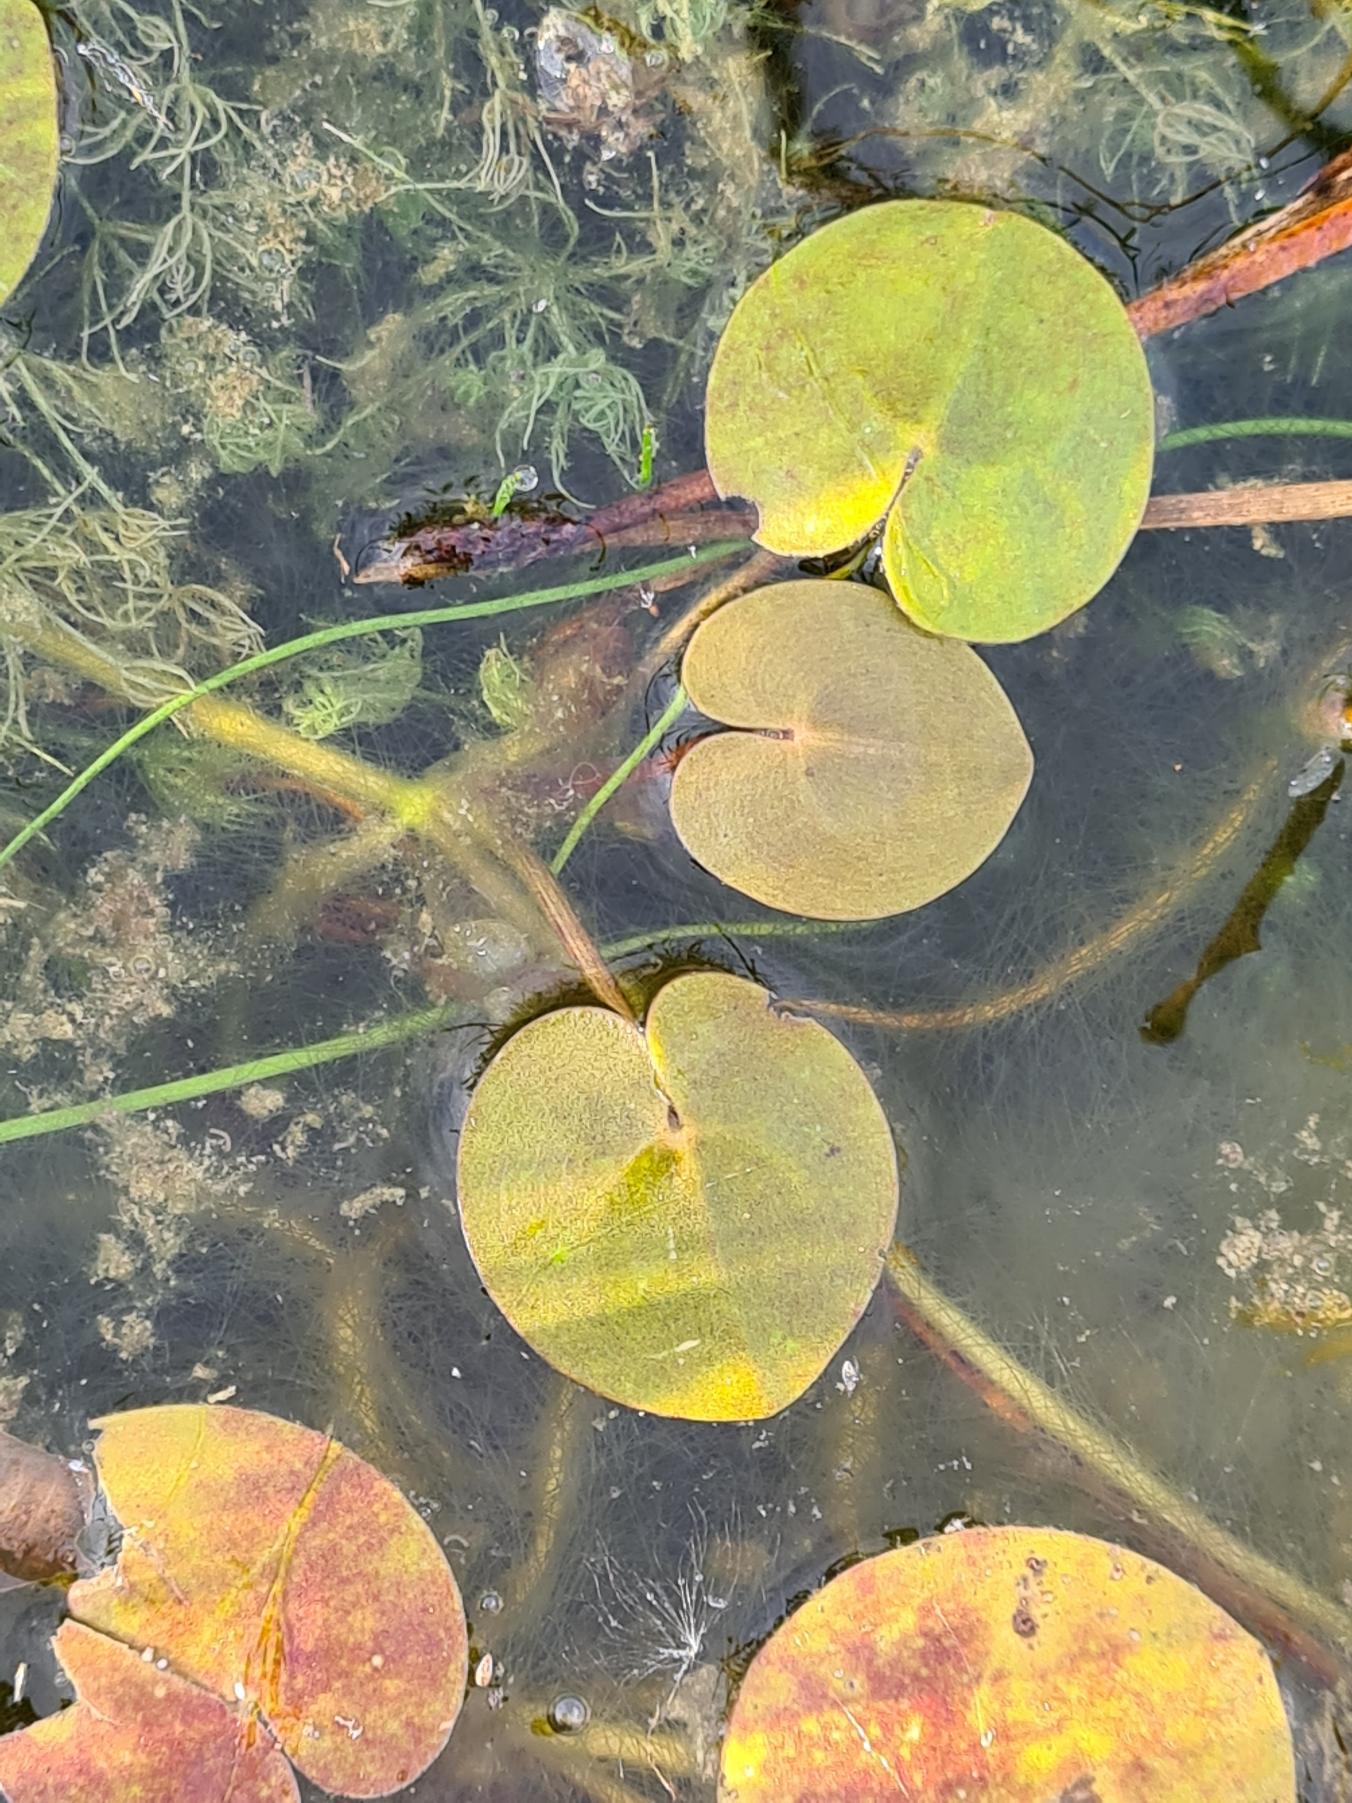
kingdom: Plantae
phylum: Tracheophyta
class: Liliopsida
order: Alismatales
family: Hydrocharitaceae
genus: Hydrocharis
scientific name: Hydrocharis morsus-ranae
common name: Frøbid
